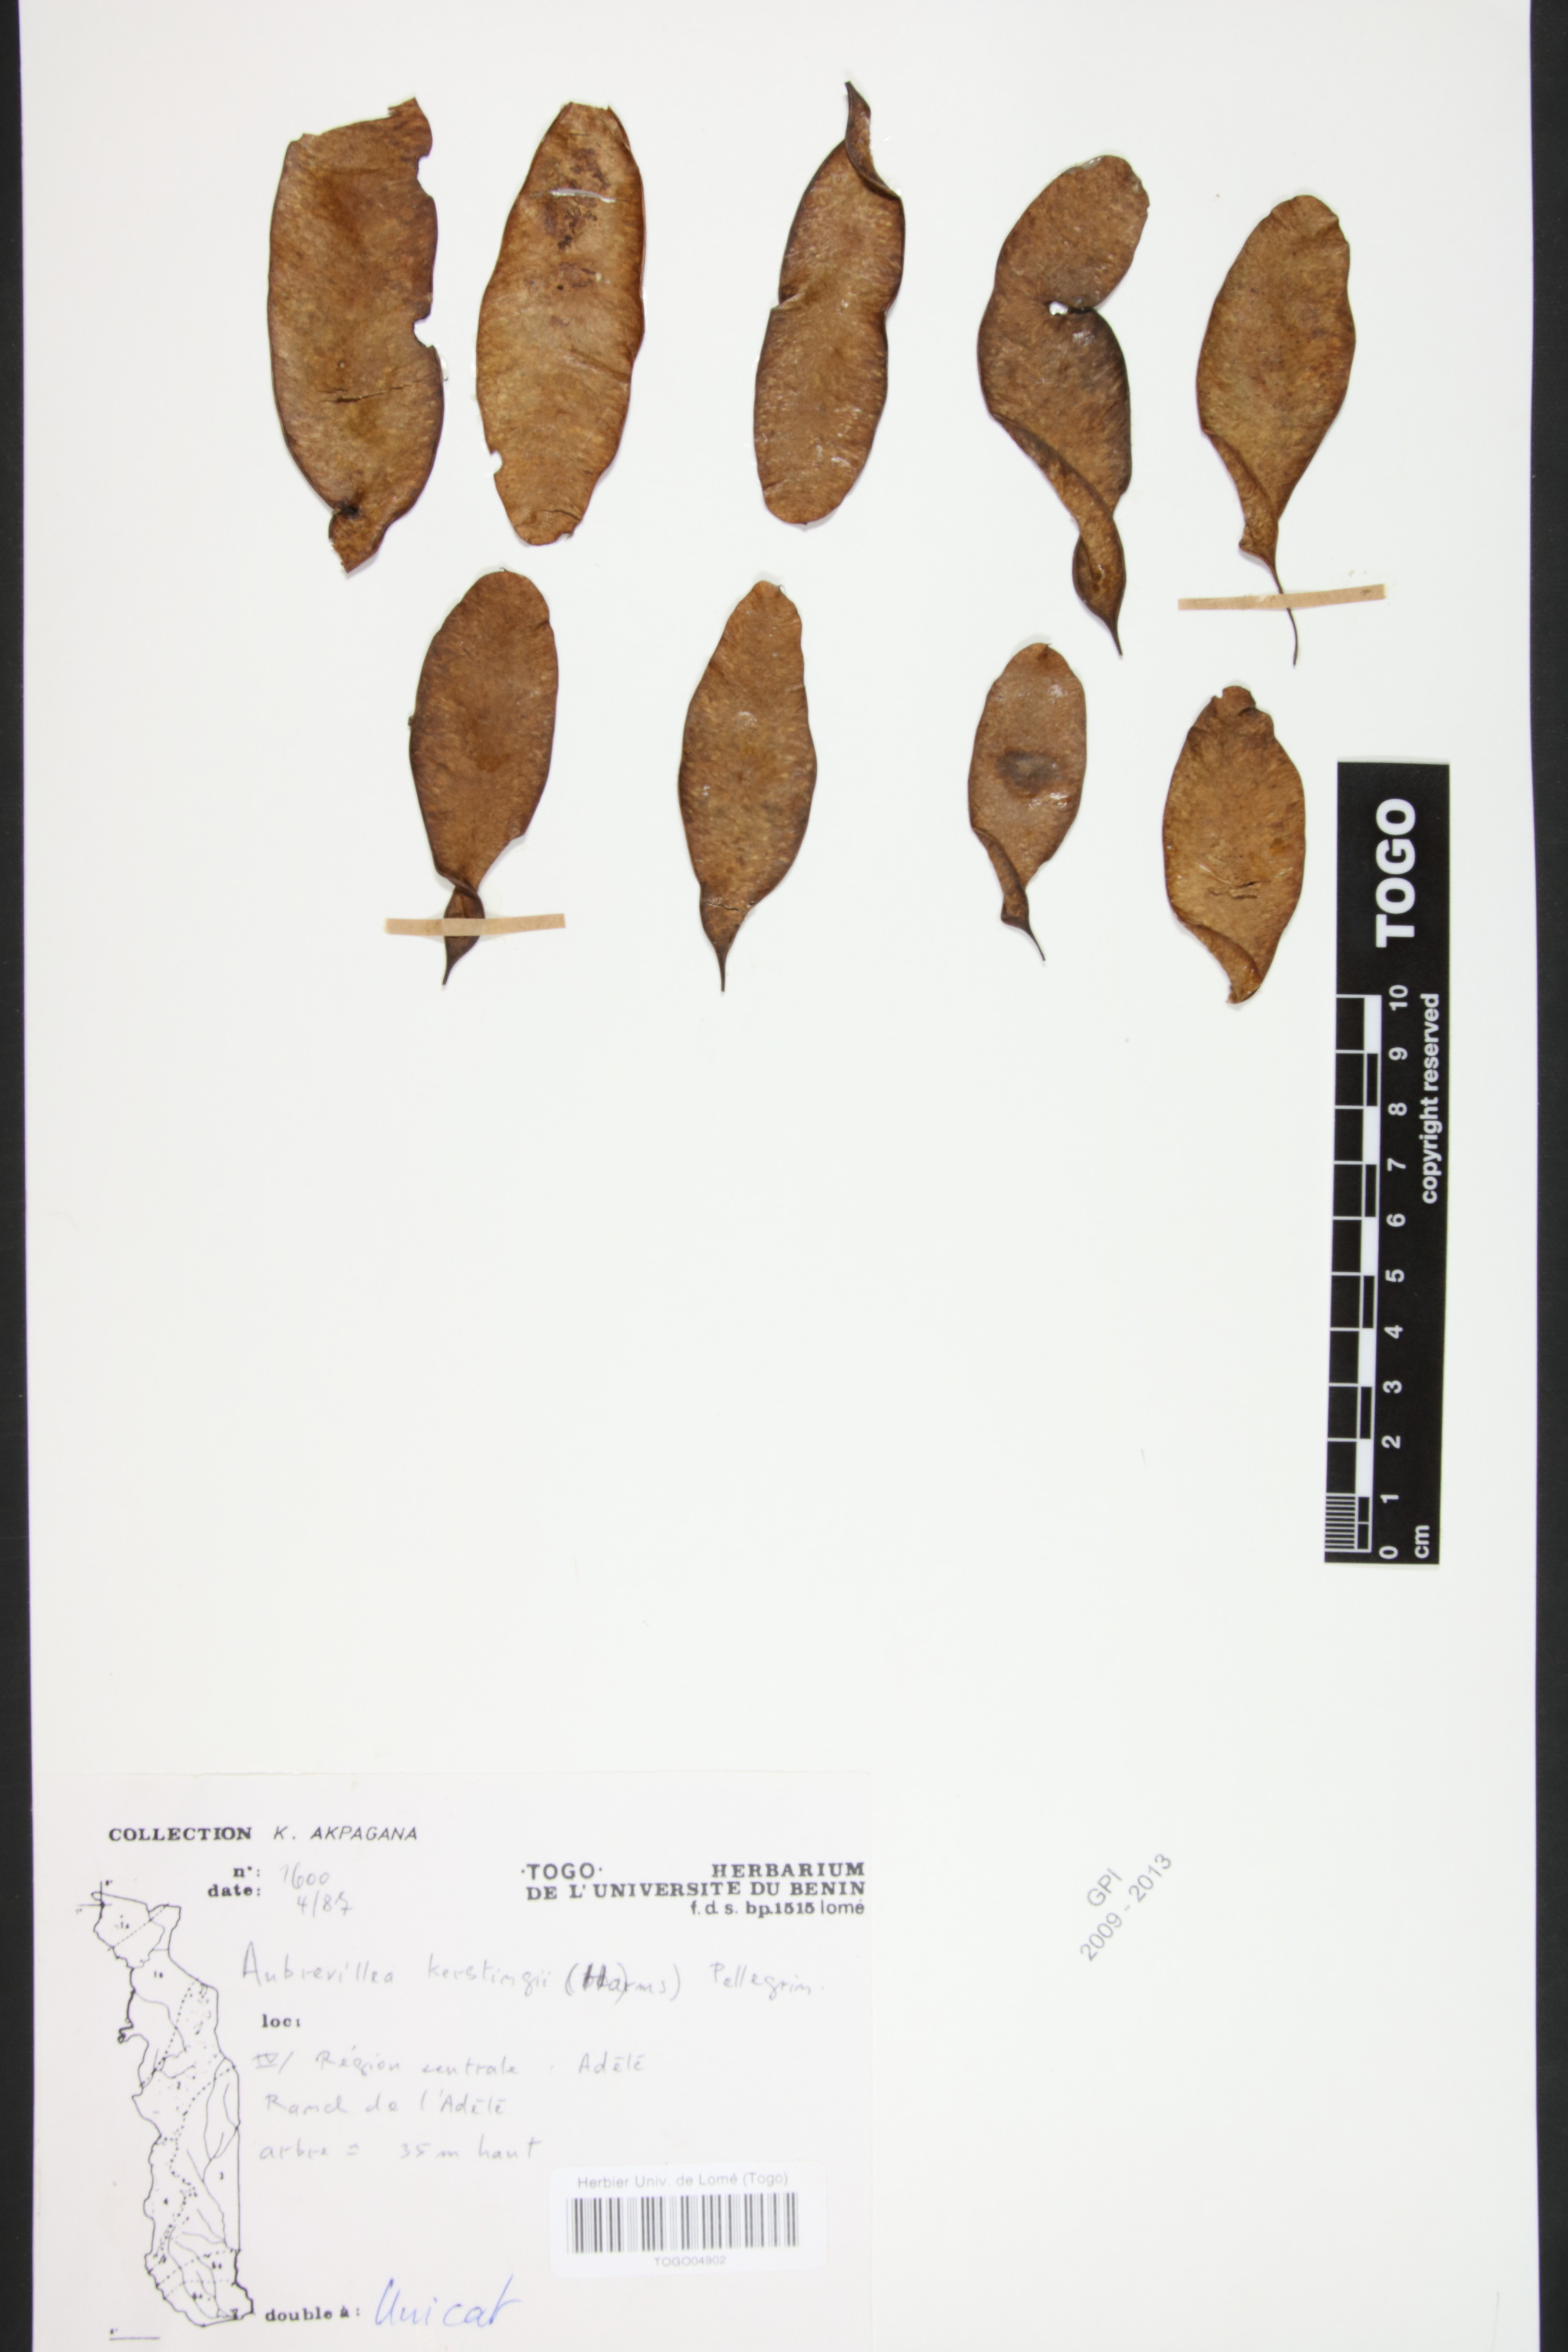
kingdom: Plantae
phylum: Tracheophyta
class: Magnoliopsida
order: Fabales
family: Fabaceae
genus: Aubrevillea
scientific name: Aubrevillea kerstingii
